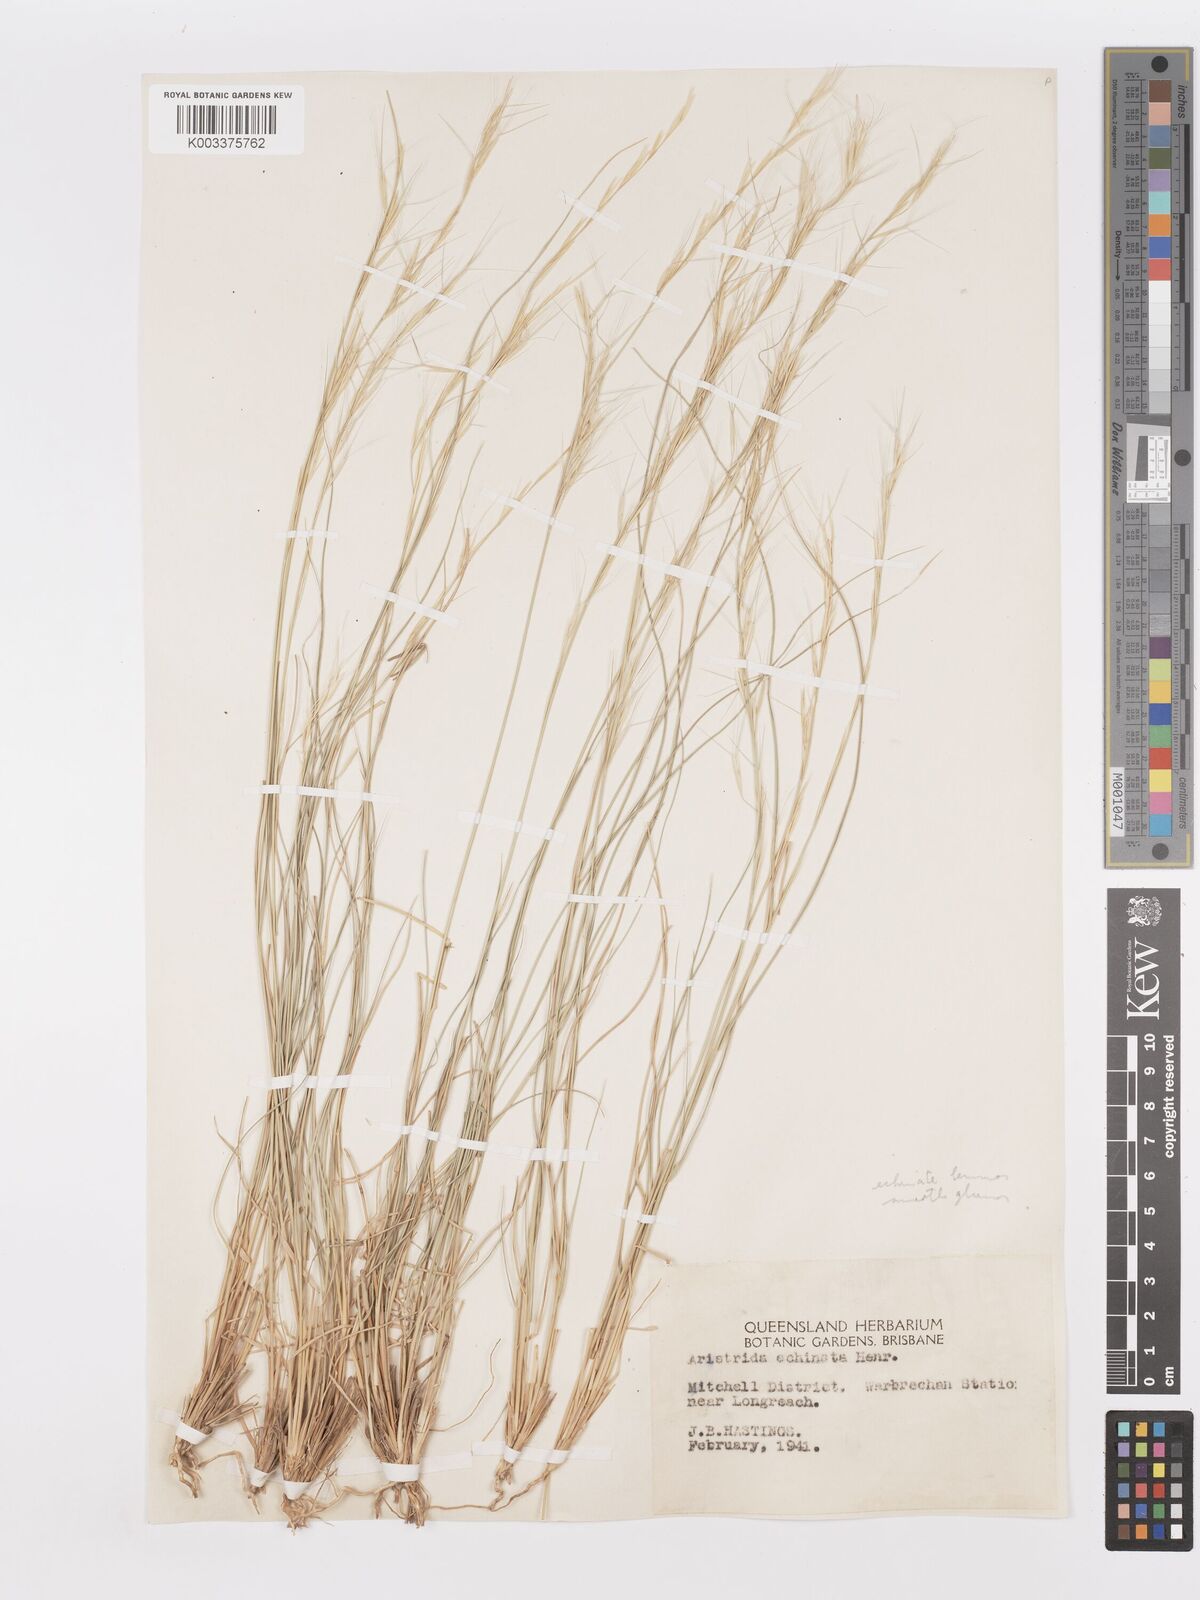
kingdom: Plantae
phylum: Tracheophyta
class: Liliopsida
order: Poales
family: Poaceae
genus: Aristida
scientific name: Aristida
